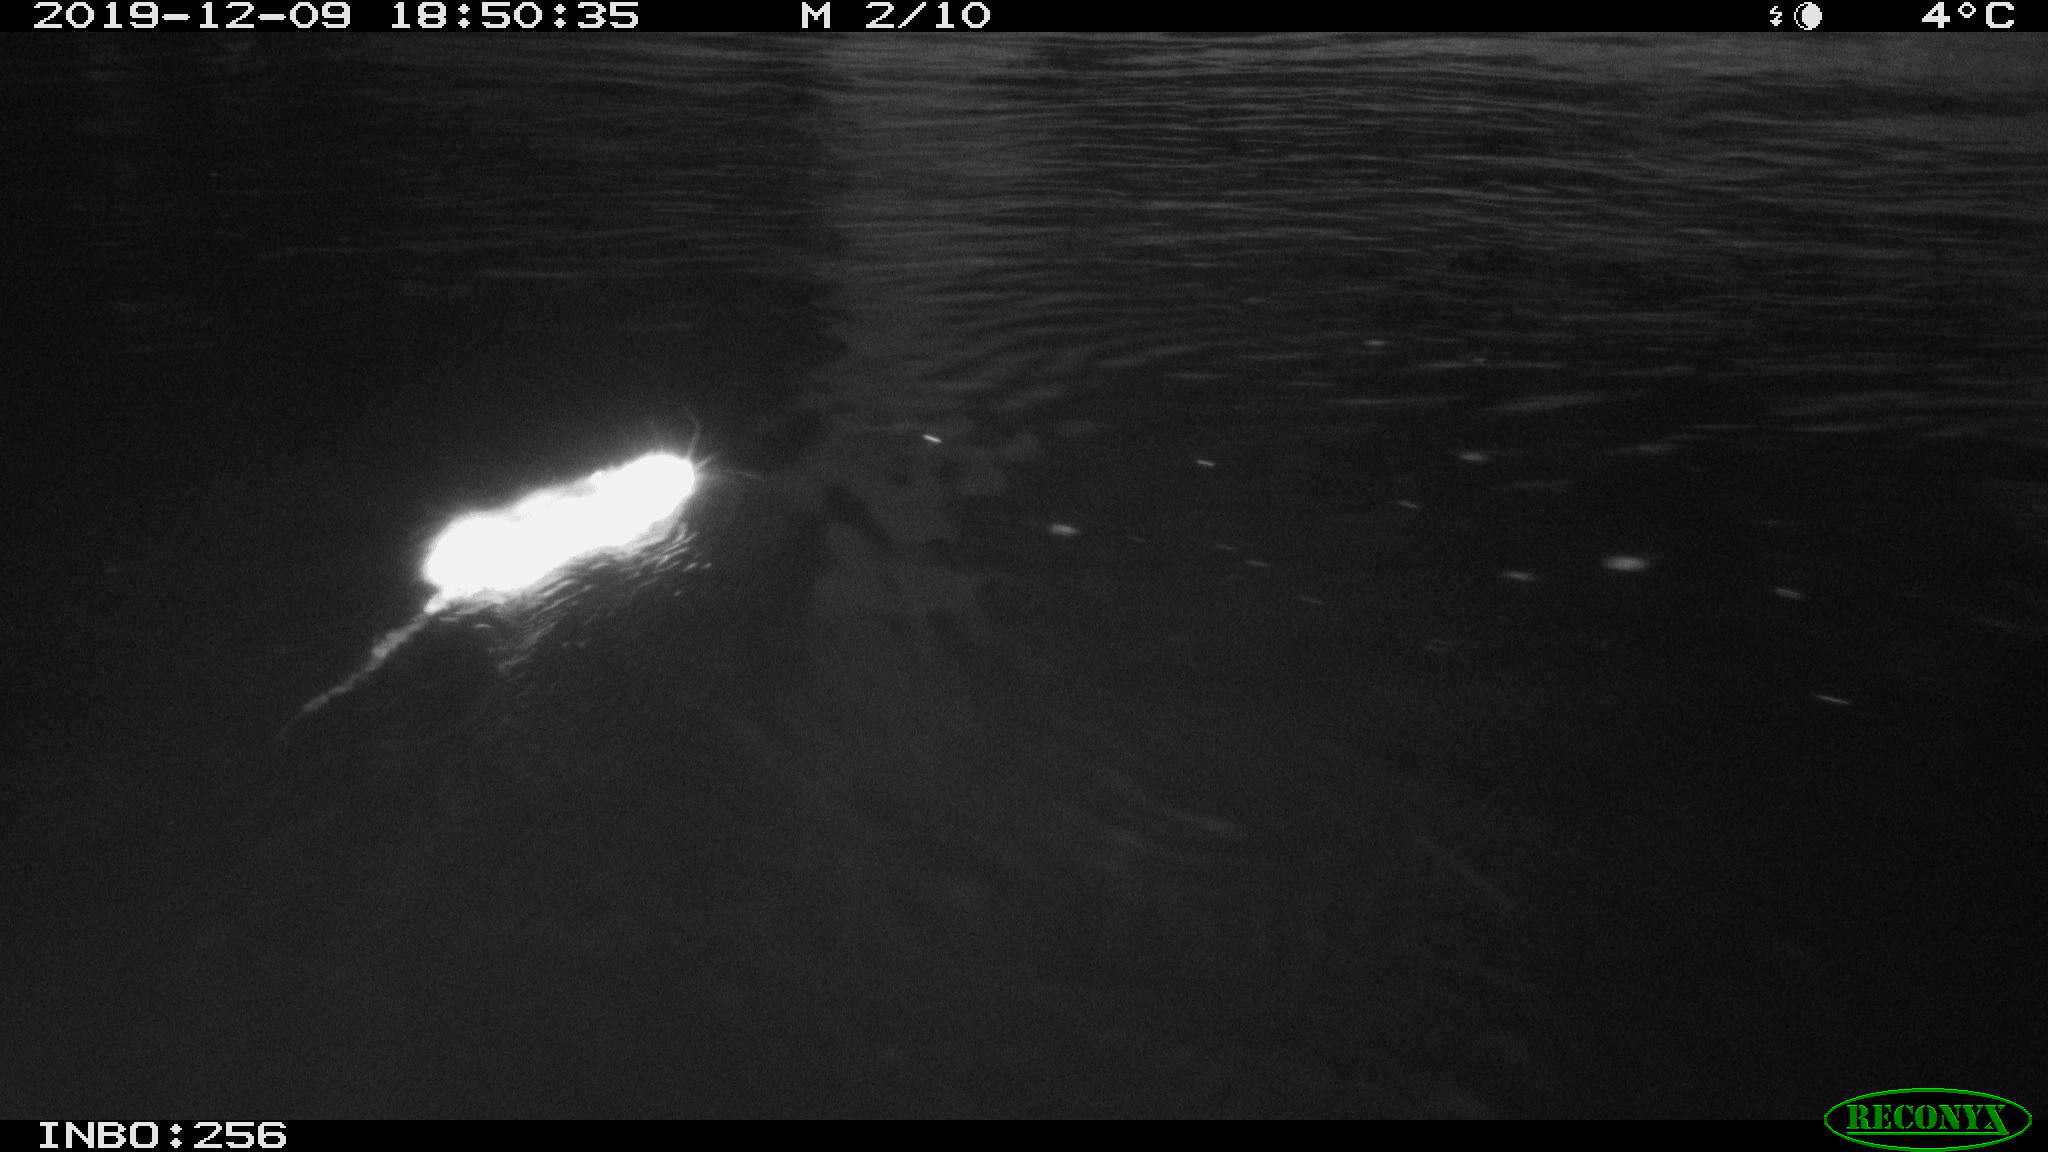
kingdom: Animalia
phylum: Chordata
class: Mammalia
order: Rodentia
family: Cricetidae
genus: Arvicola
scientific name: Arvicola amphibius
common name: European water vole
